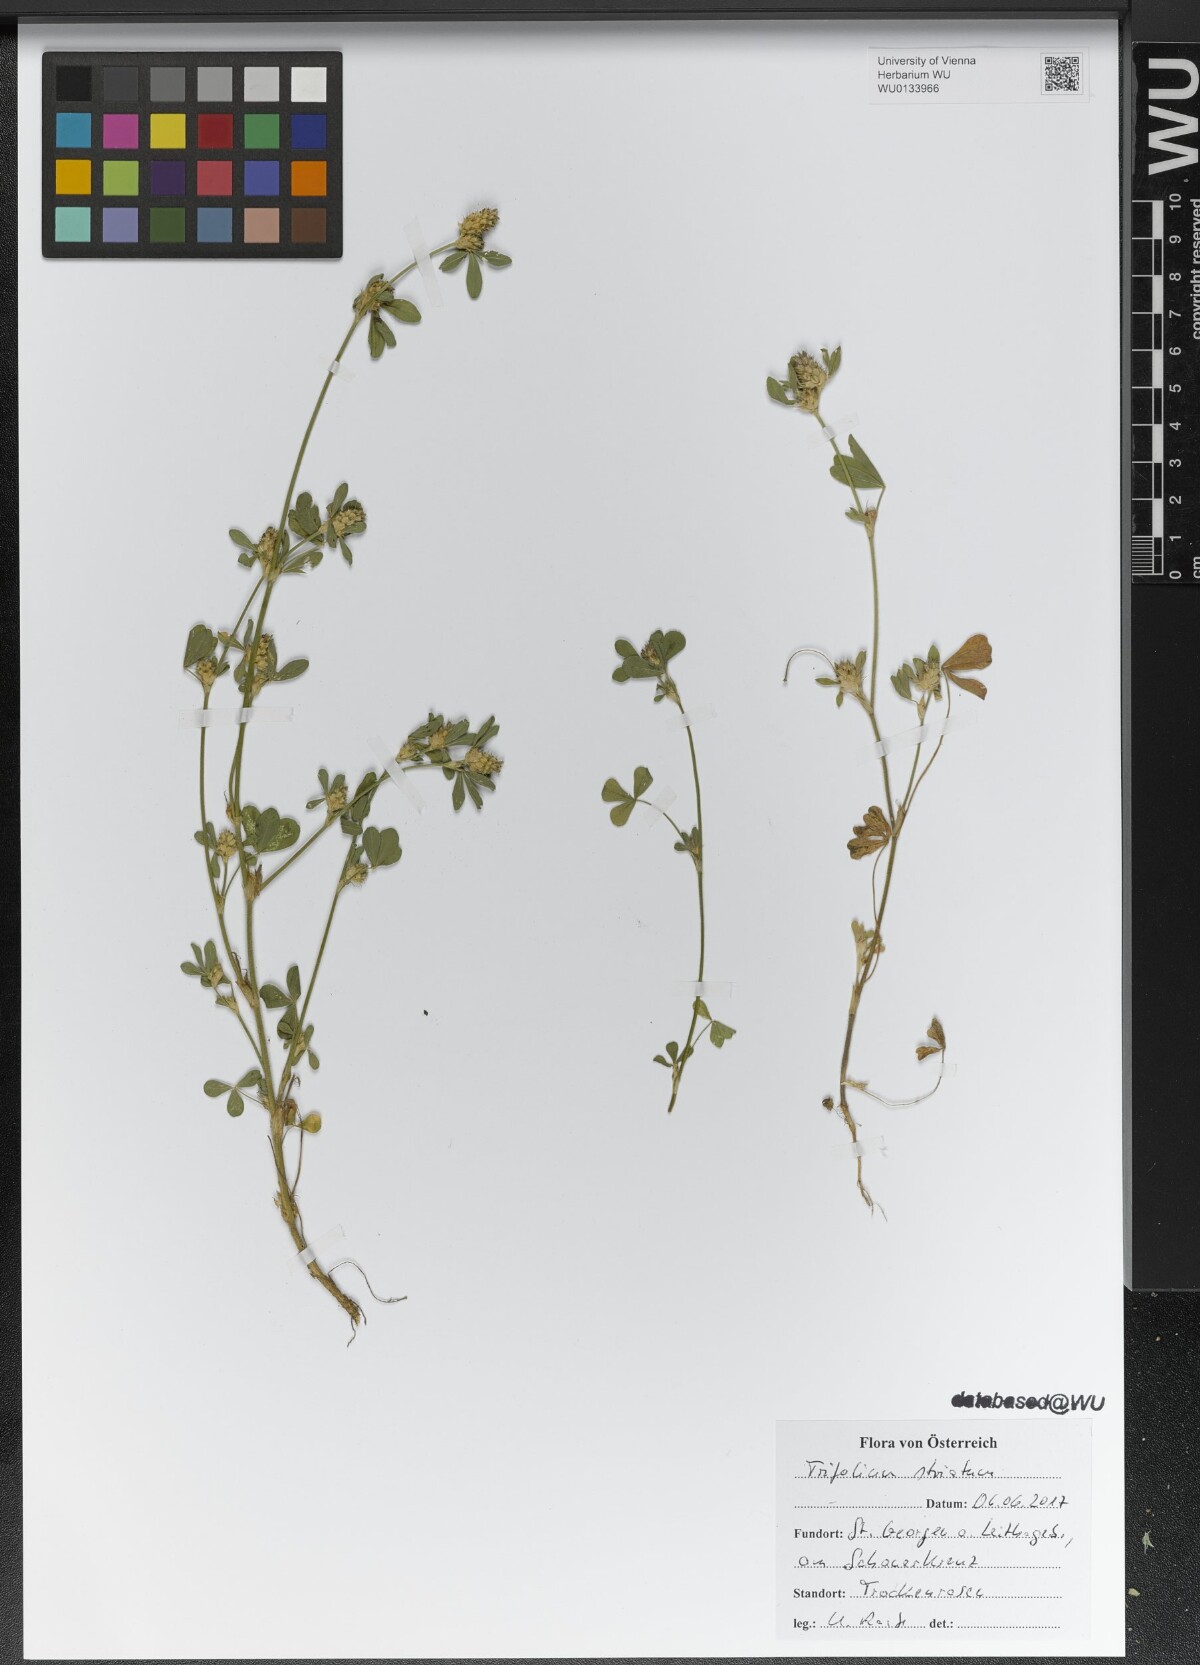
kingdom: Plantae
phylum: Tracheophyta
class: Magnoliopsida
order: Fabales
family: Fabaceae
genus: Trifolium
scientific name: Trifolium striatum
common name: Knotted clover
